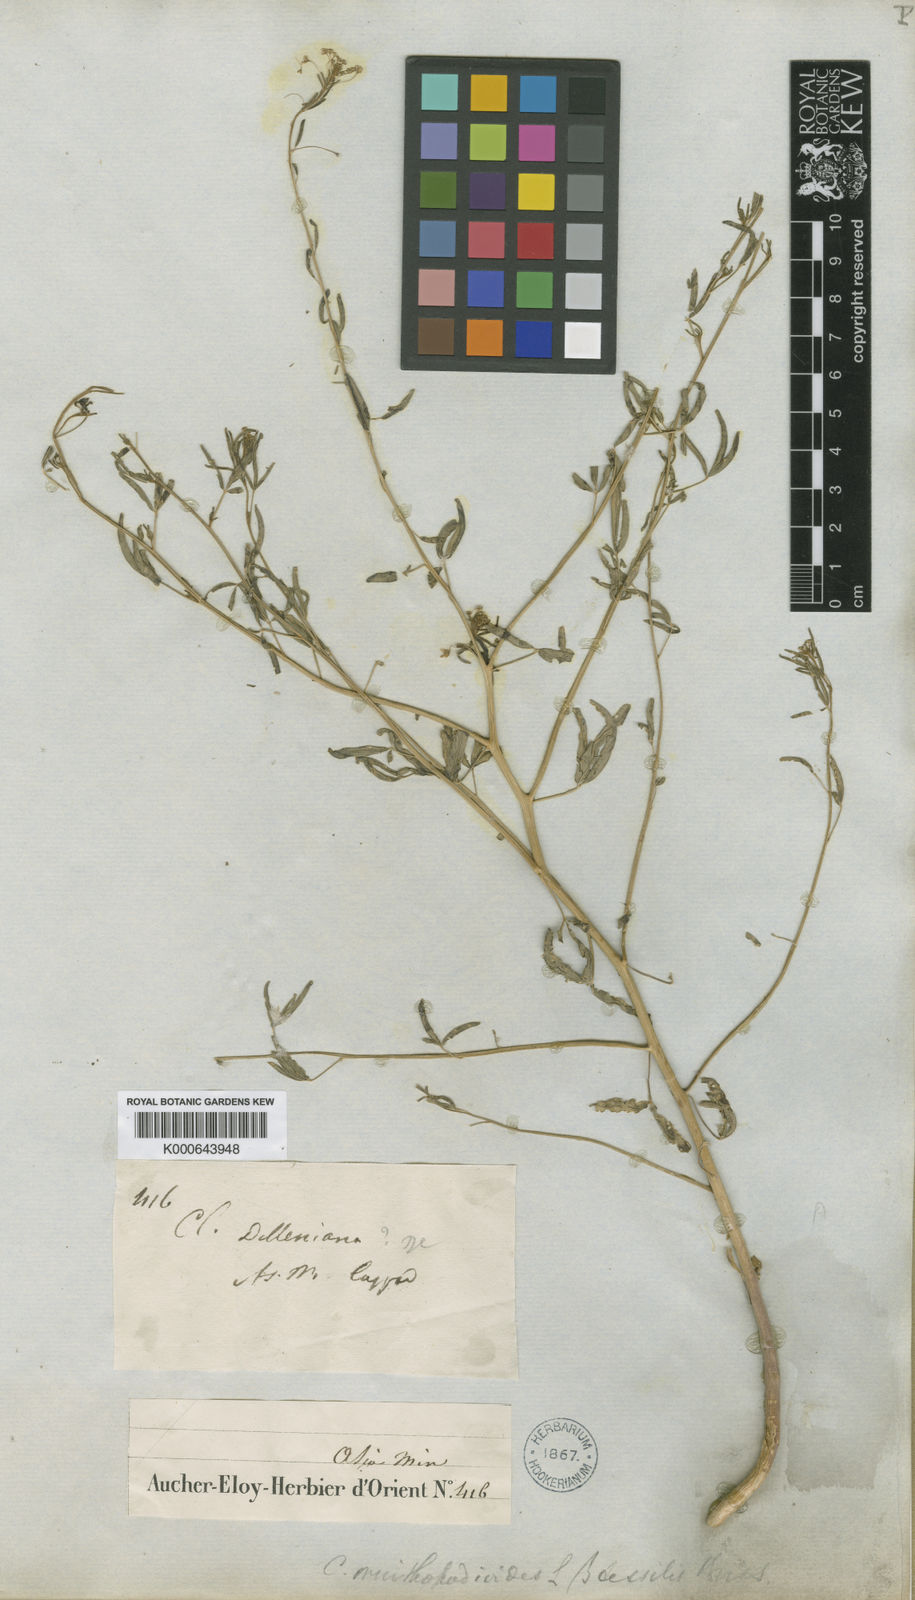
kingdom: Plantae
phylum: Tracheophyta
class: Magnoliopsida
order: Brassicales
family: Cleomaceae
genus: Cleome
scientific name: Cleome iberica
